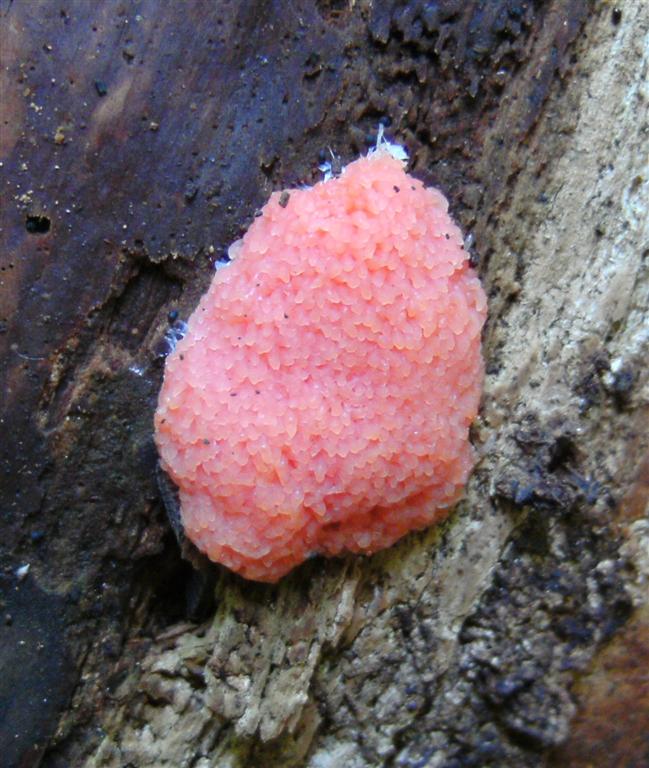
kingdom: Protozoa
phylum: Mycetozoa
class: Myxomycetes
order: Cribrariales
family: Tubiferaceae
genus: Tubifera
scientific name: Tubifera ferruginosa
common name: kanel-støvrør
